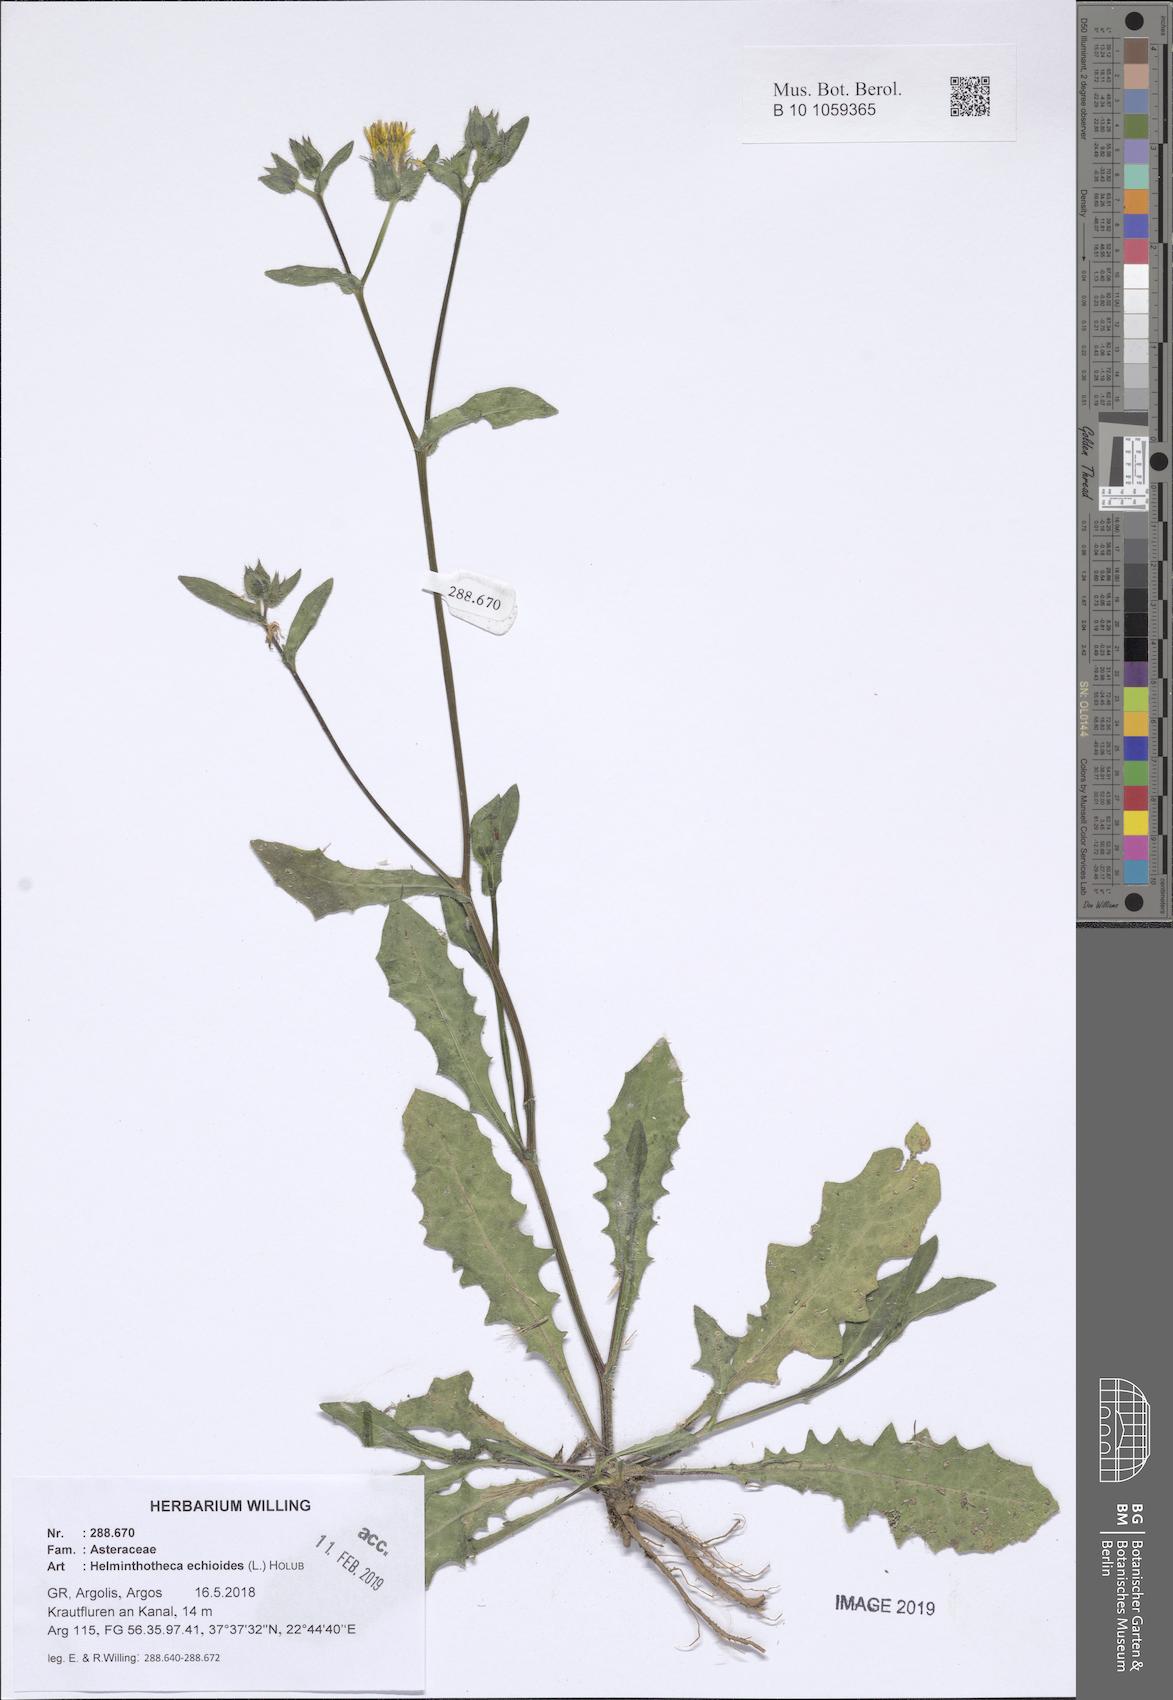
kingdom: Plantae
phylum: Tracheophyta
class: Magnoliopsida
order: Asterales
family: Asteraceae
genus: Helminthotheca
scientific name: Helminthotheca echioides
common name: Ox-tongue
